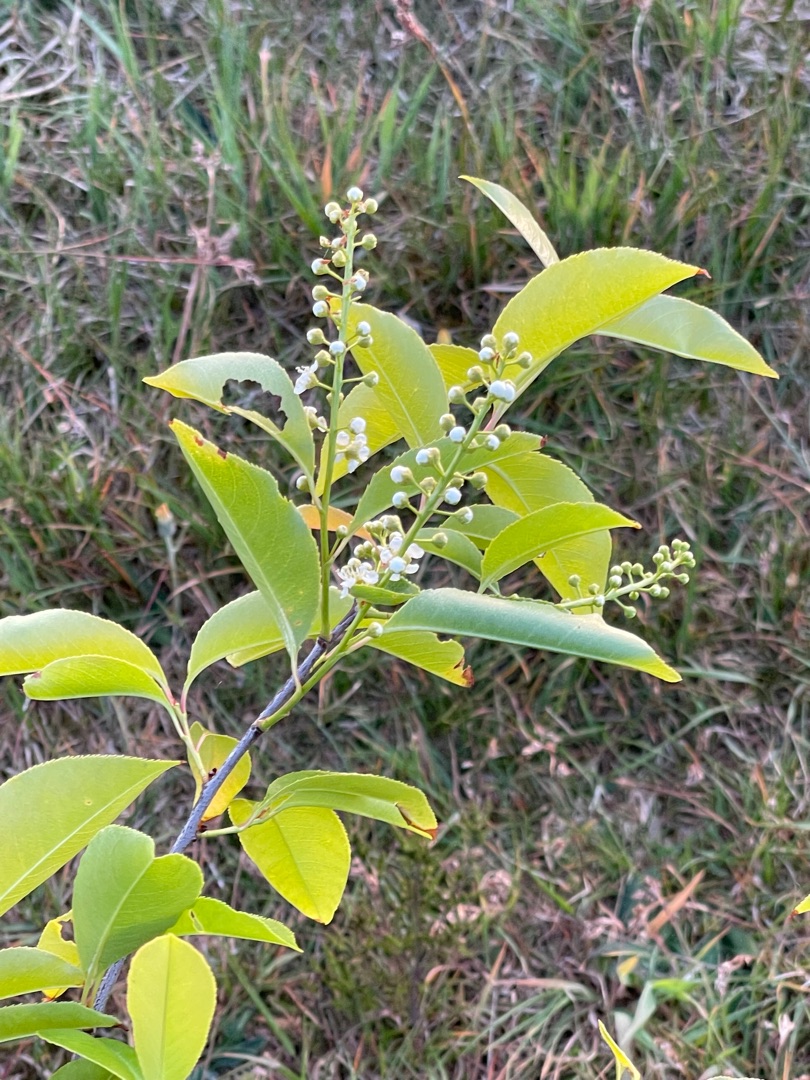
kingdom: Plantae
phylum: Tracheophyta
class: Magnoliopsida
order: Rosales
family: Rosaceae
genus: Prunus
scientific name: Prunus serotina
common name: Glansbladet hæg
